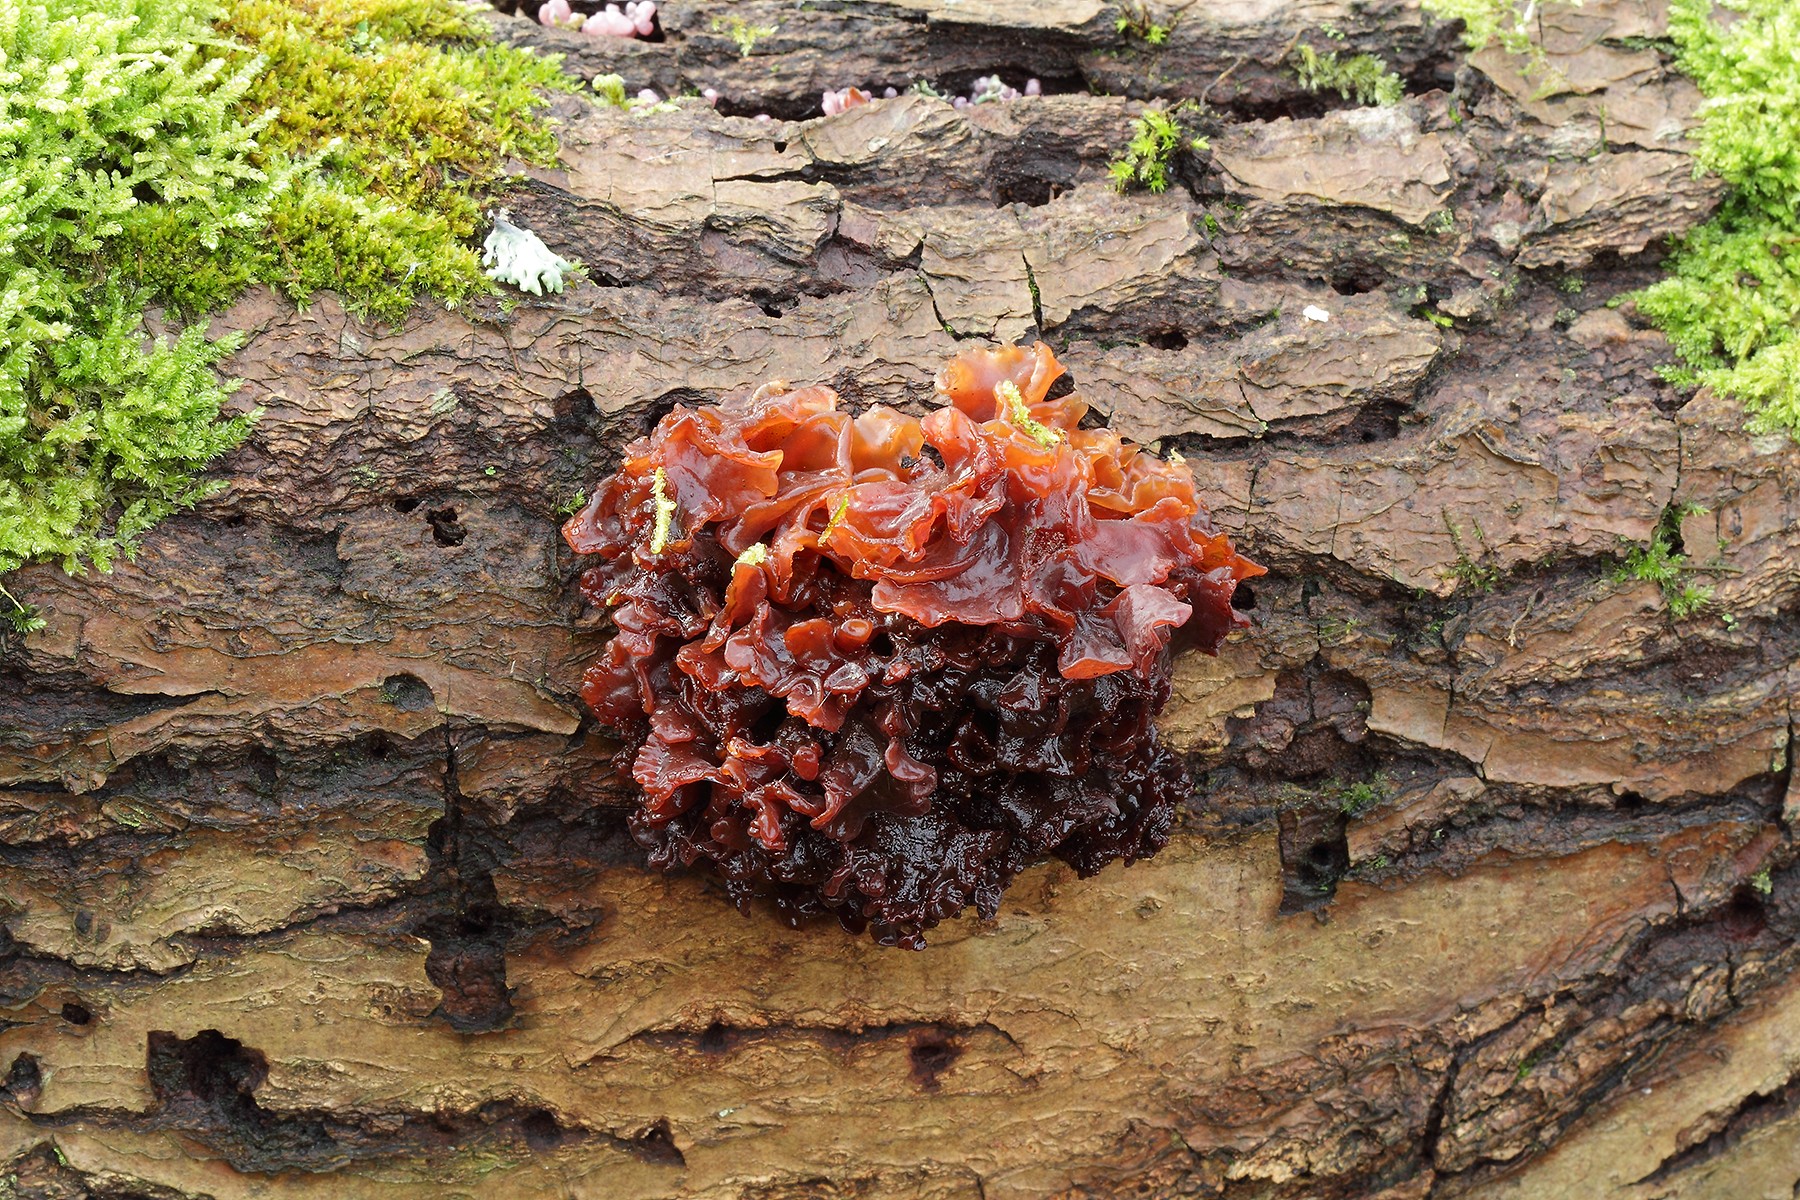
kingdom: Fungi
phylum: Basidiomycota
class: Tremellomycetes
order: Tremellales
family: Tremellaceae
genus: Phaeotremella
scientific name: Phaeotremella frondosa
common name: kæmpe-bævresvamp
